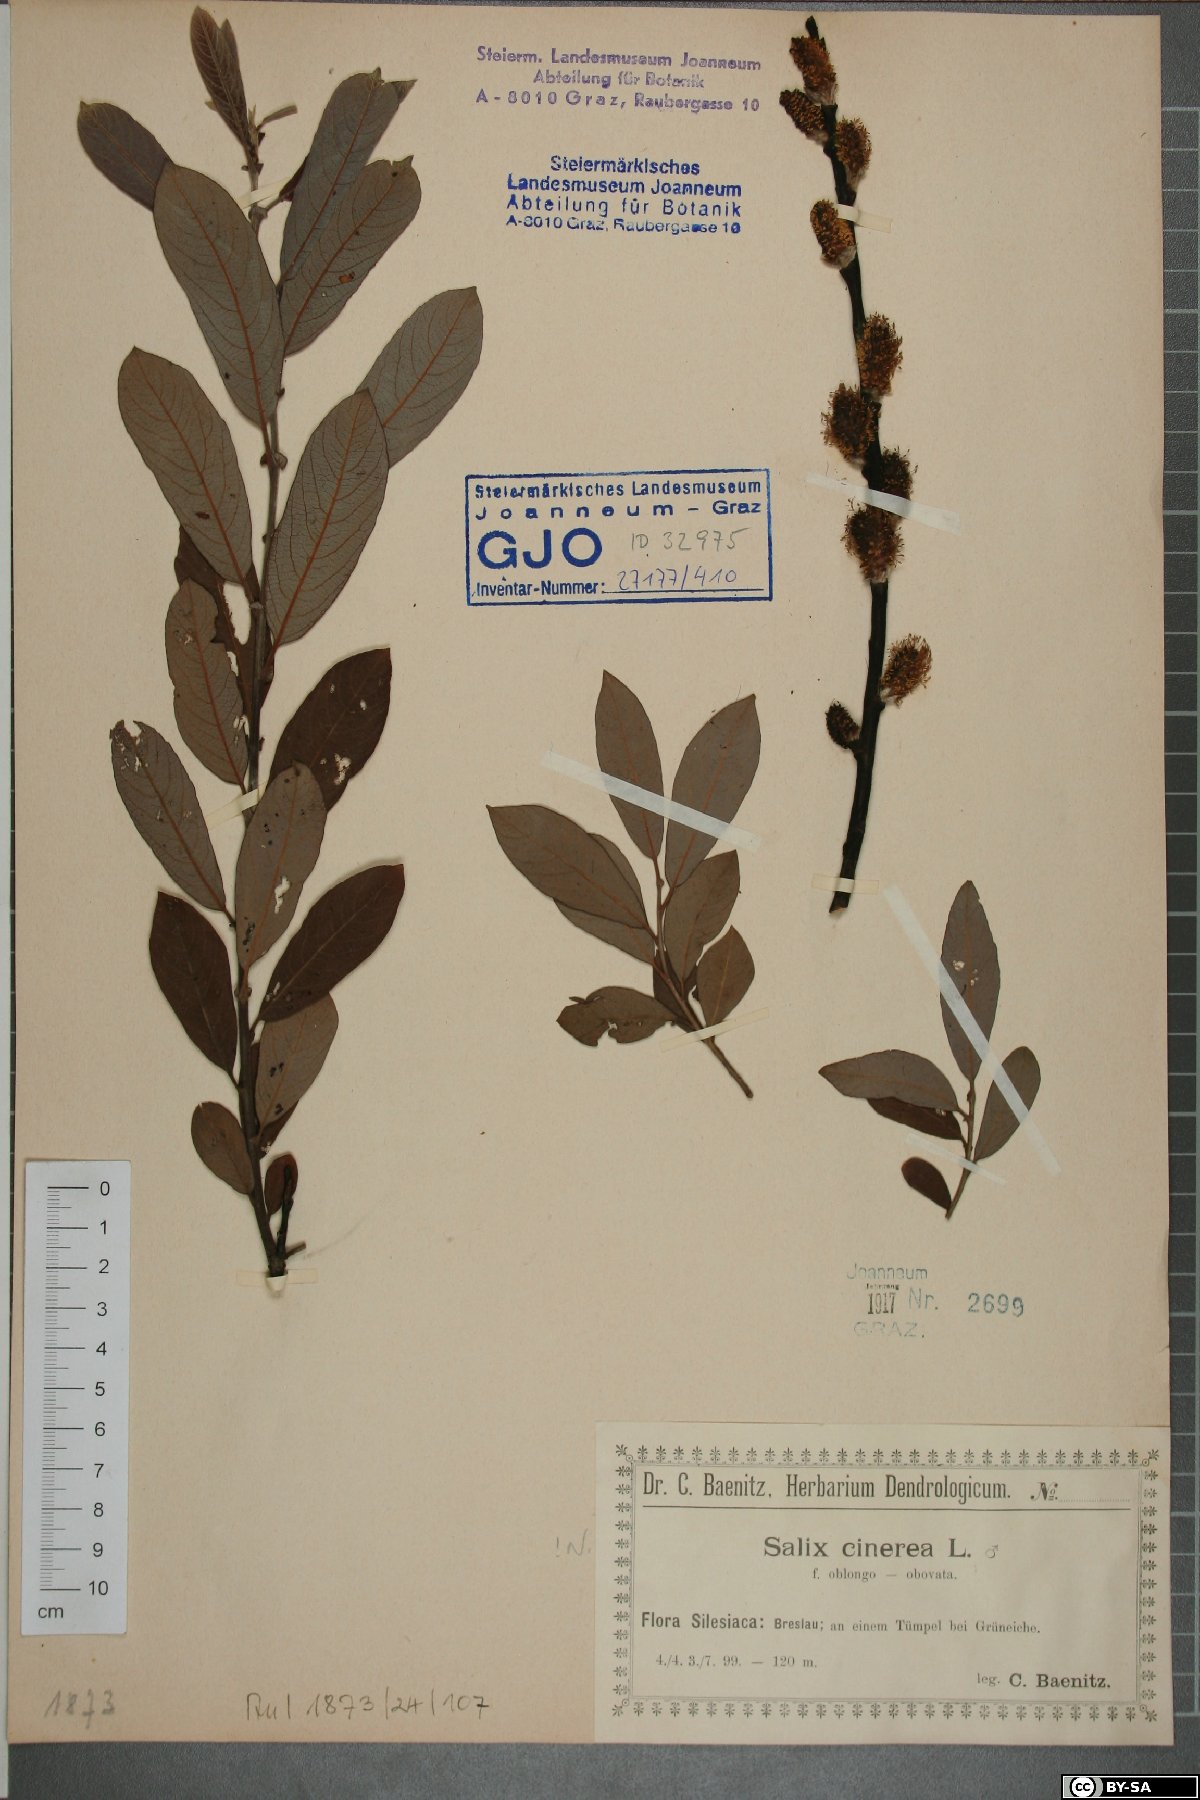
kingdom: Plantae
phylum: Tracheophyta
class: Magnoliopsida
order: Malpighiales
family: Salicaceae
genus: Salix
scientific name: Salix cinerea
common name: Common sallow
